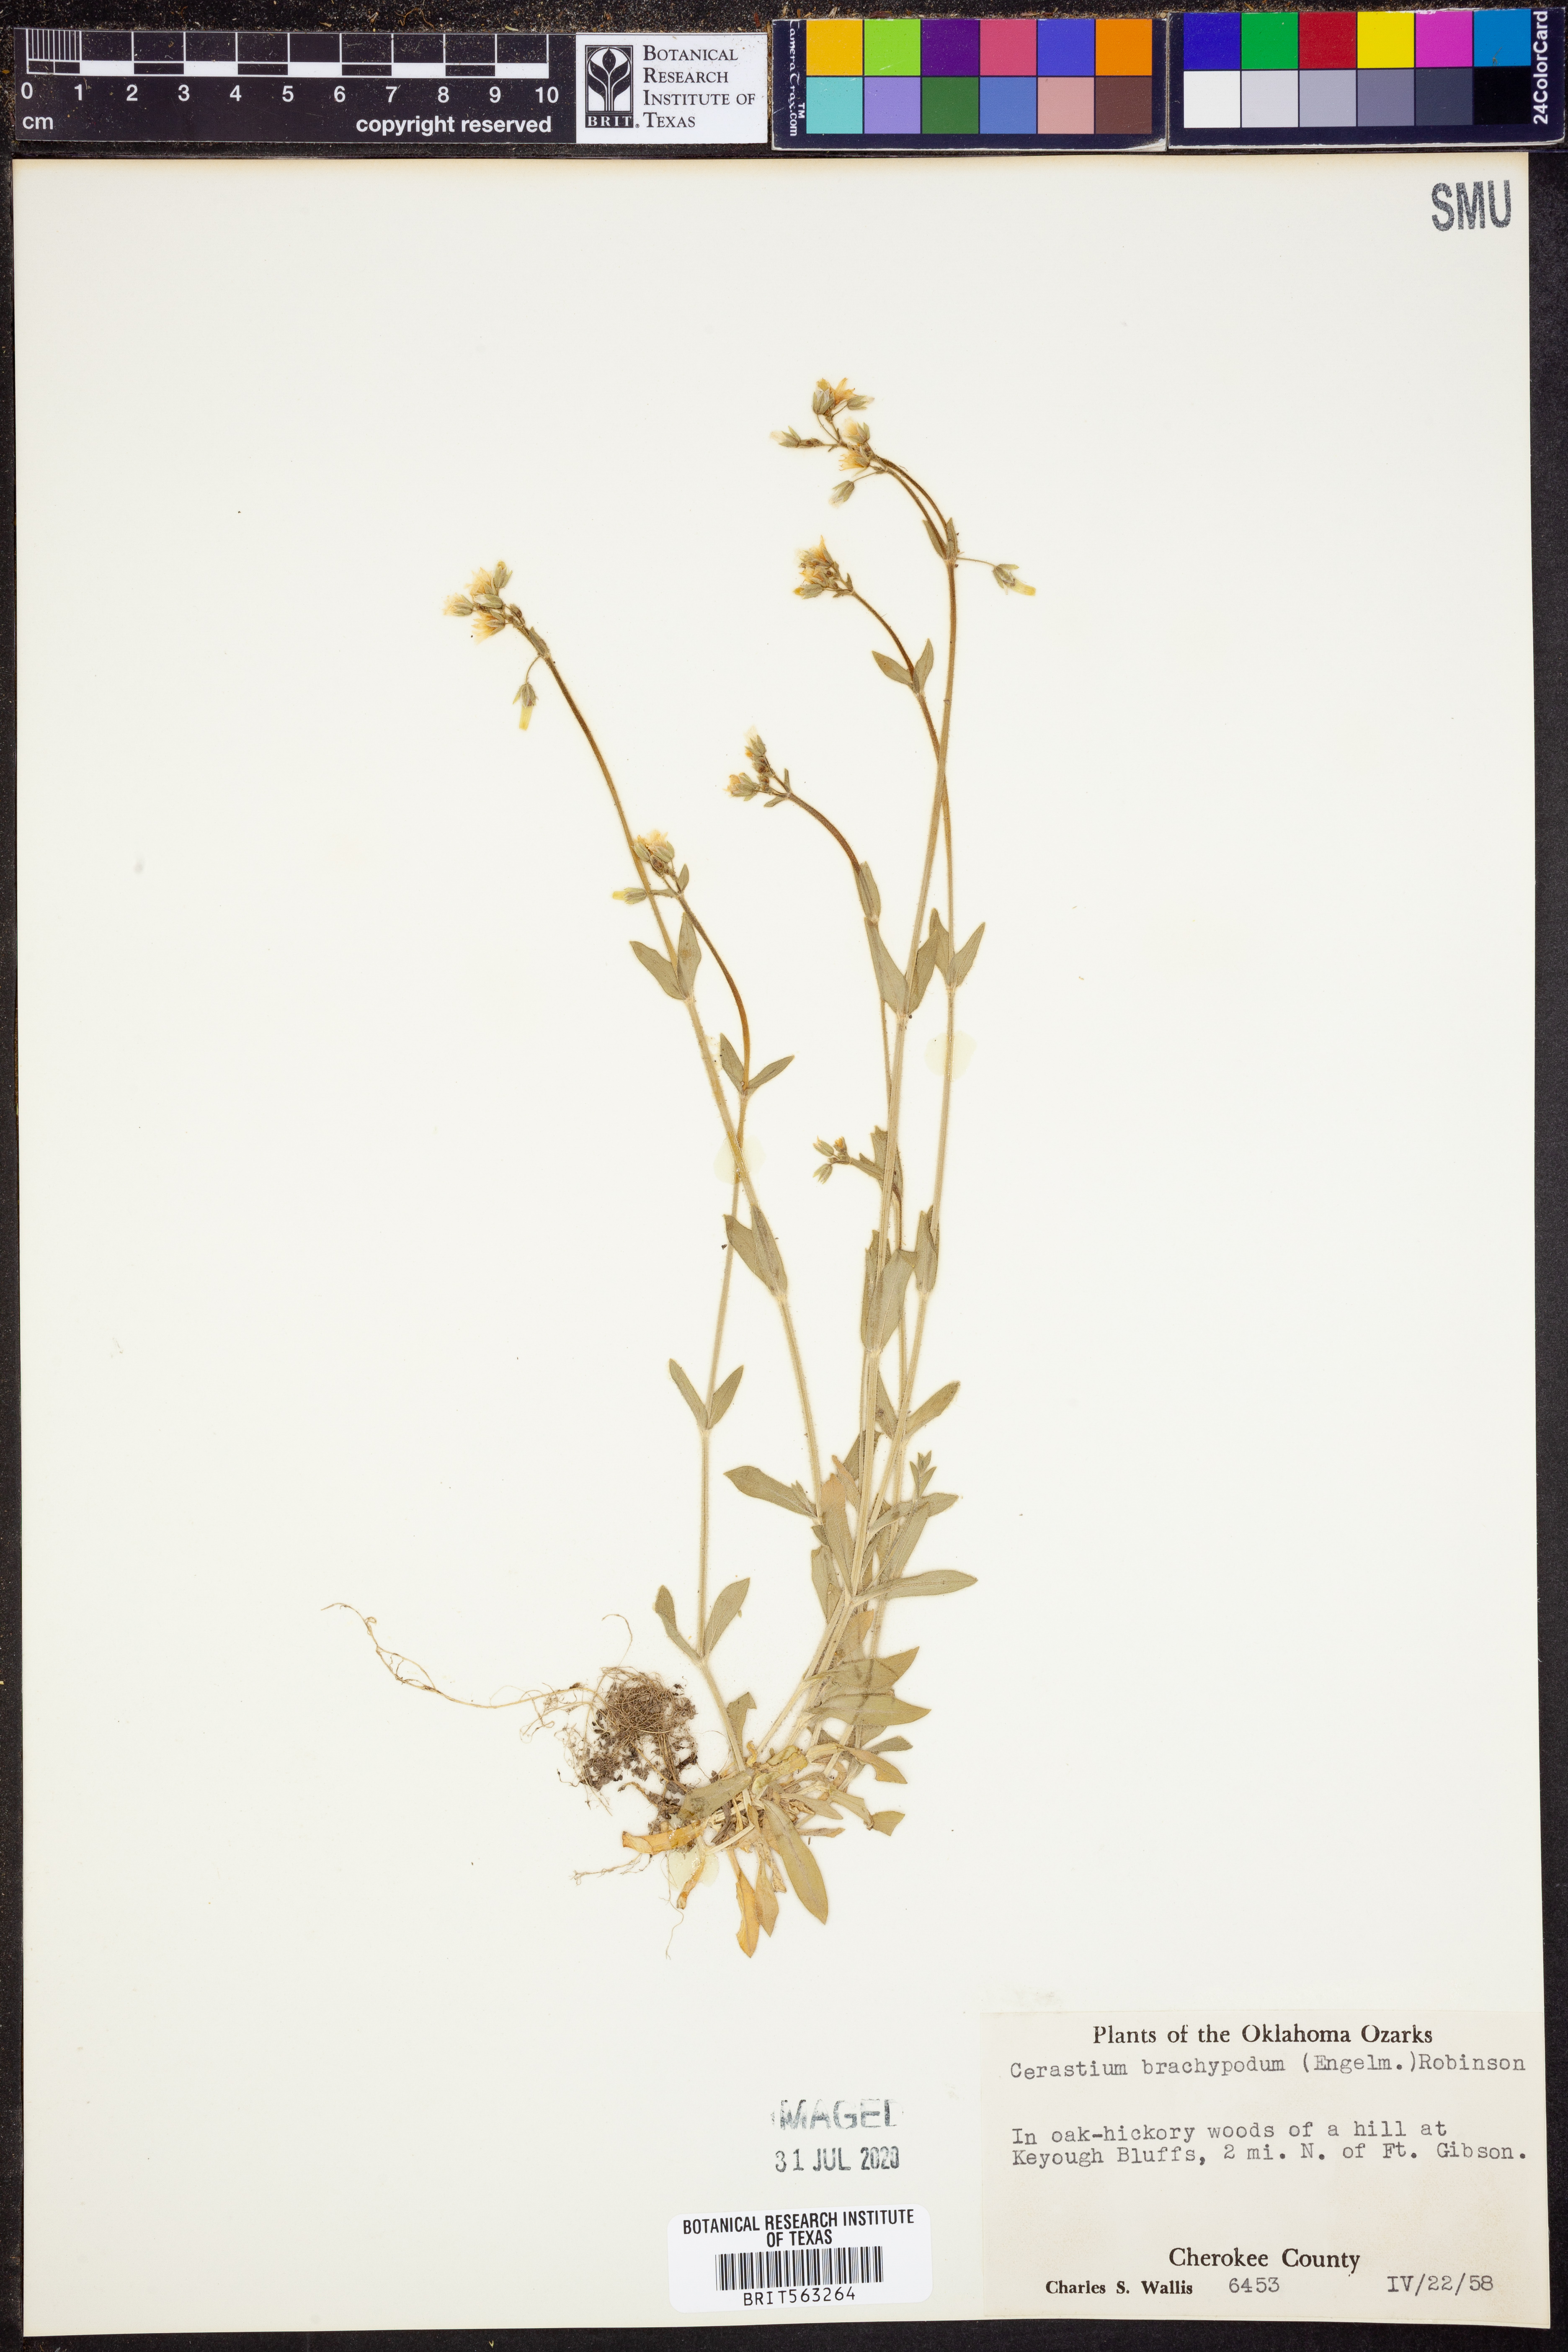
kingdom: Plantae
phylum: Tracheophyta
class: Magnoliopsida
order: Caryophyllales
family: Caryophyllaceae
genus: Cerastium
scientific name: Cerastium brachypodum
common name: Short-pedicelled nodding chickweed
